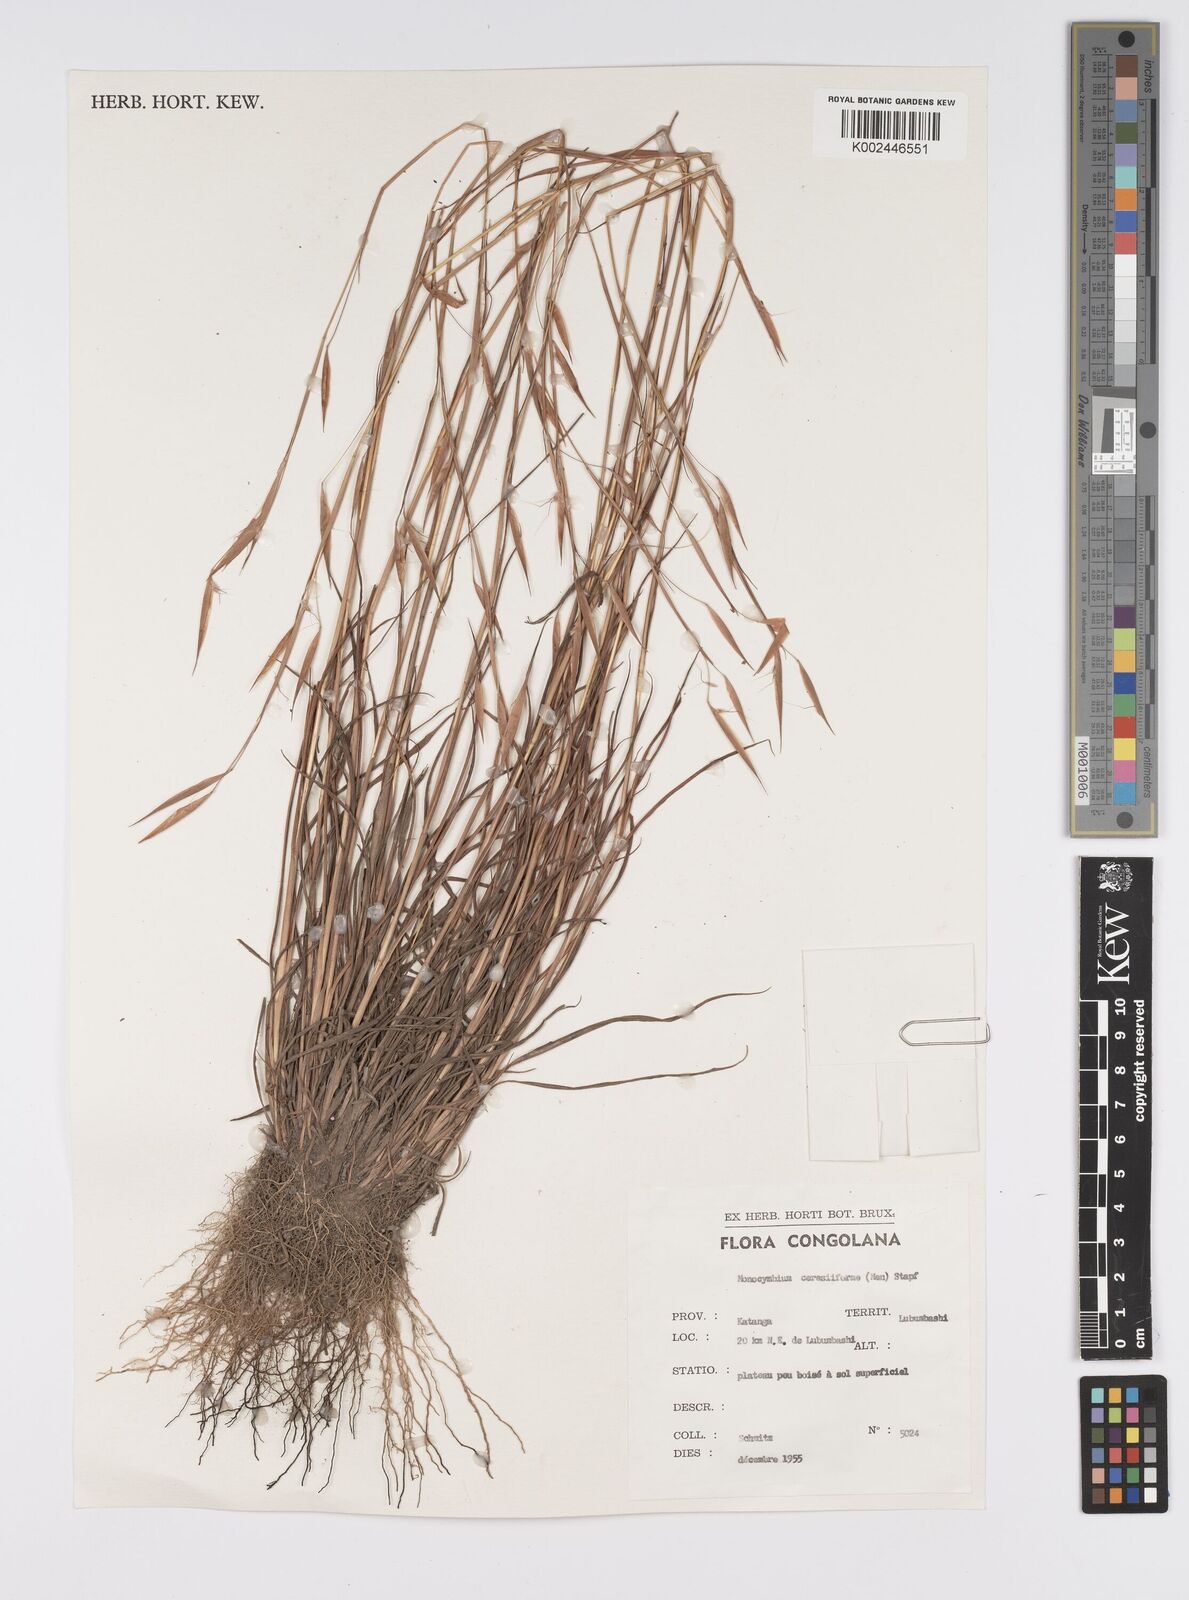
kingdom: Plantae
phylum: Tracheophyta
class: Liliopsida
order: Poales
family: Poaceae
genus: Monocymbium
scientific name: Monocymbium ceresiiforme
